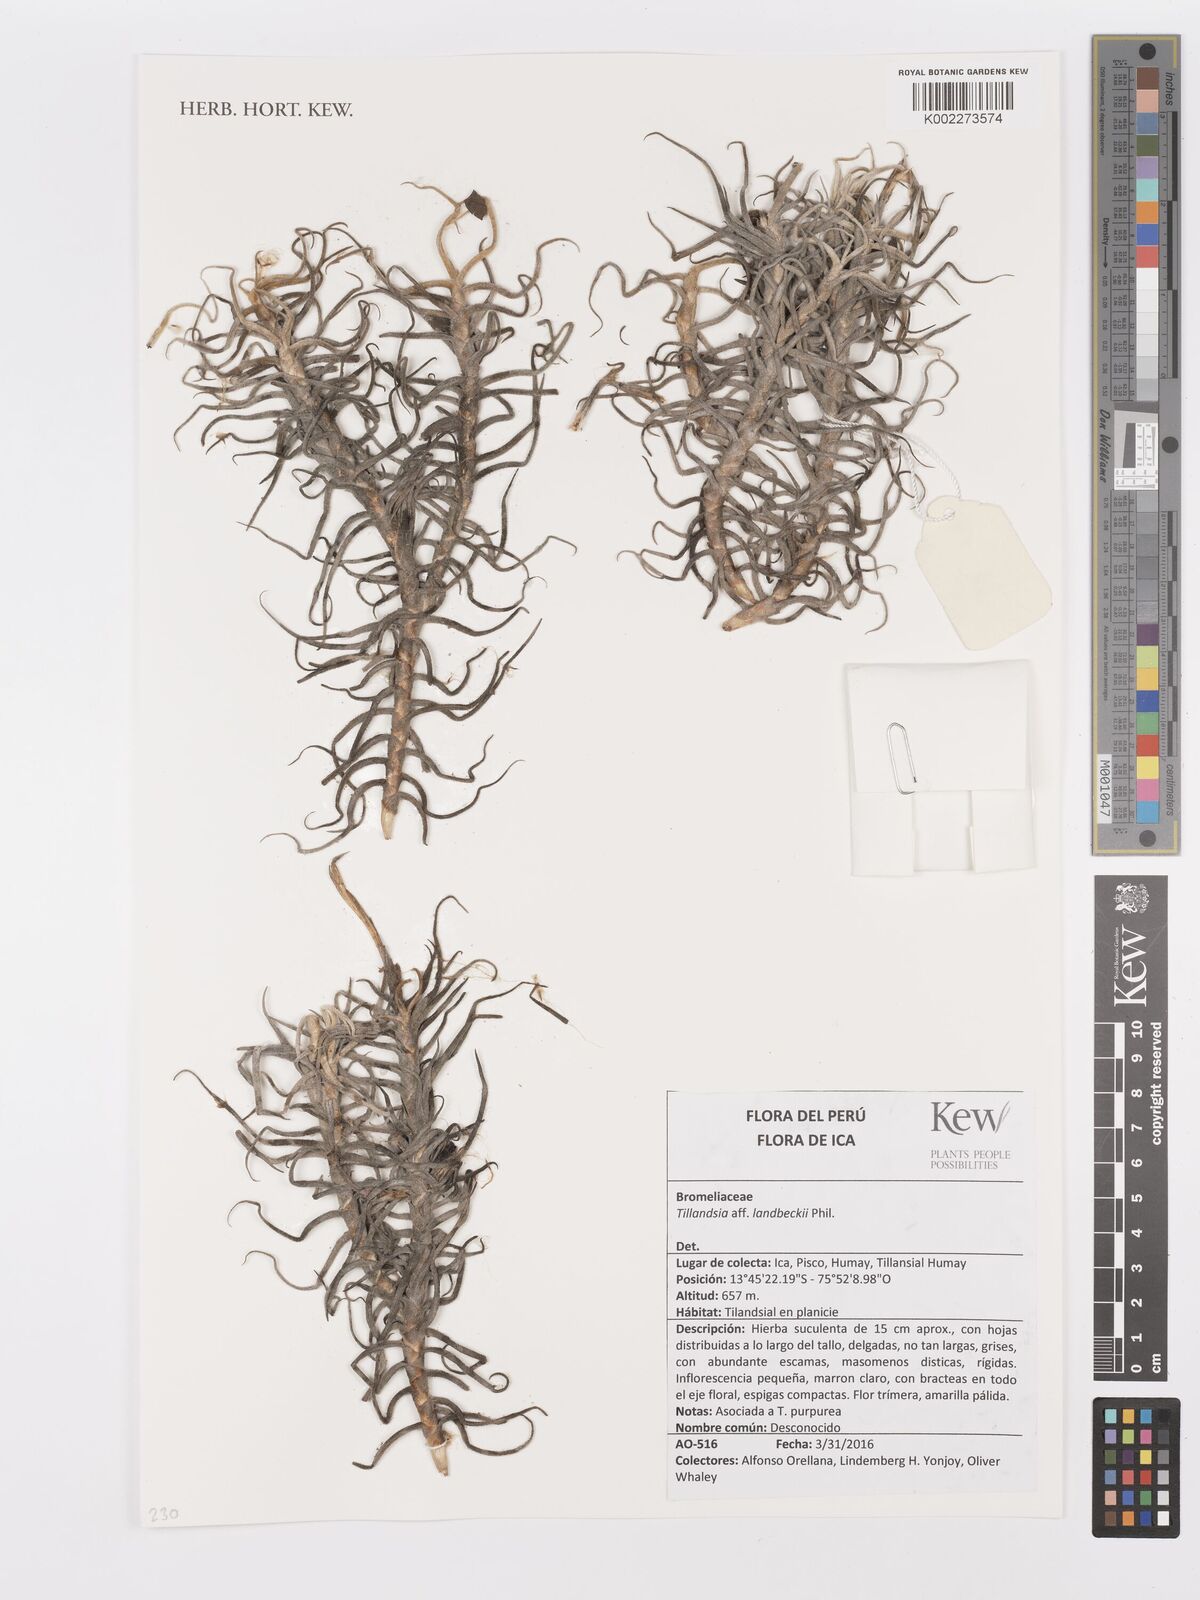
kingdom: Plantae
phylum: Tracheophyta
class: Liliopsida
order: Poales
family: Bromeliaceae
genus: Tillandsia
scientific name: Tillandsia landbeckii
